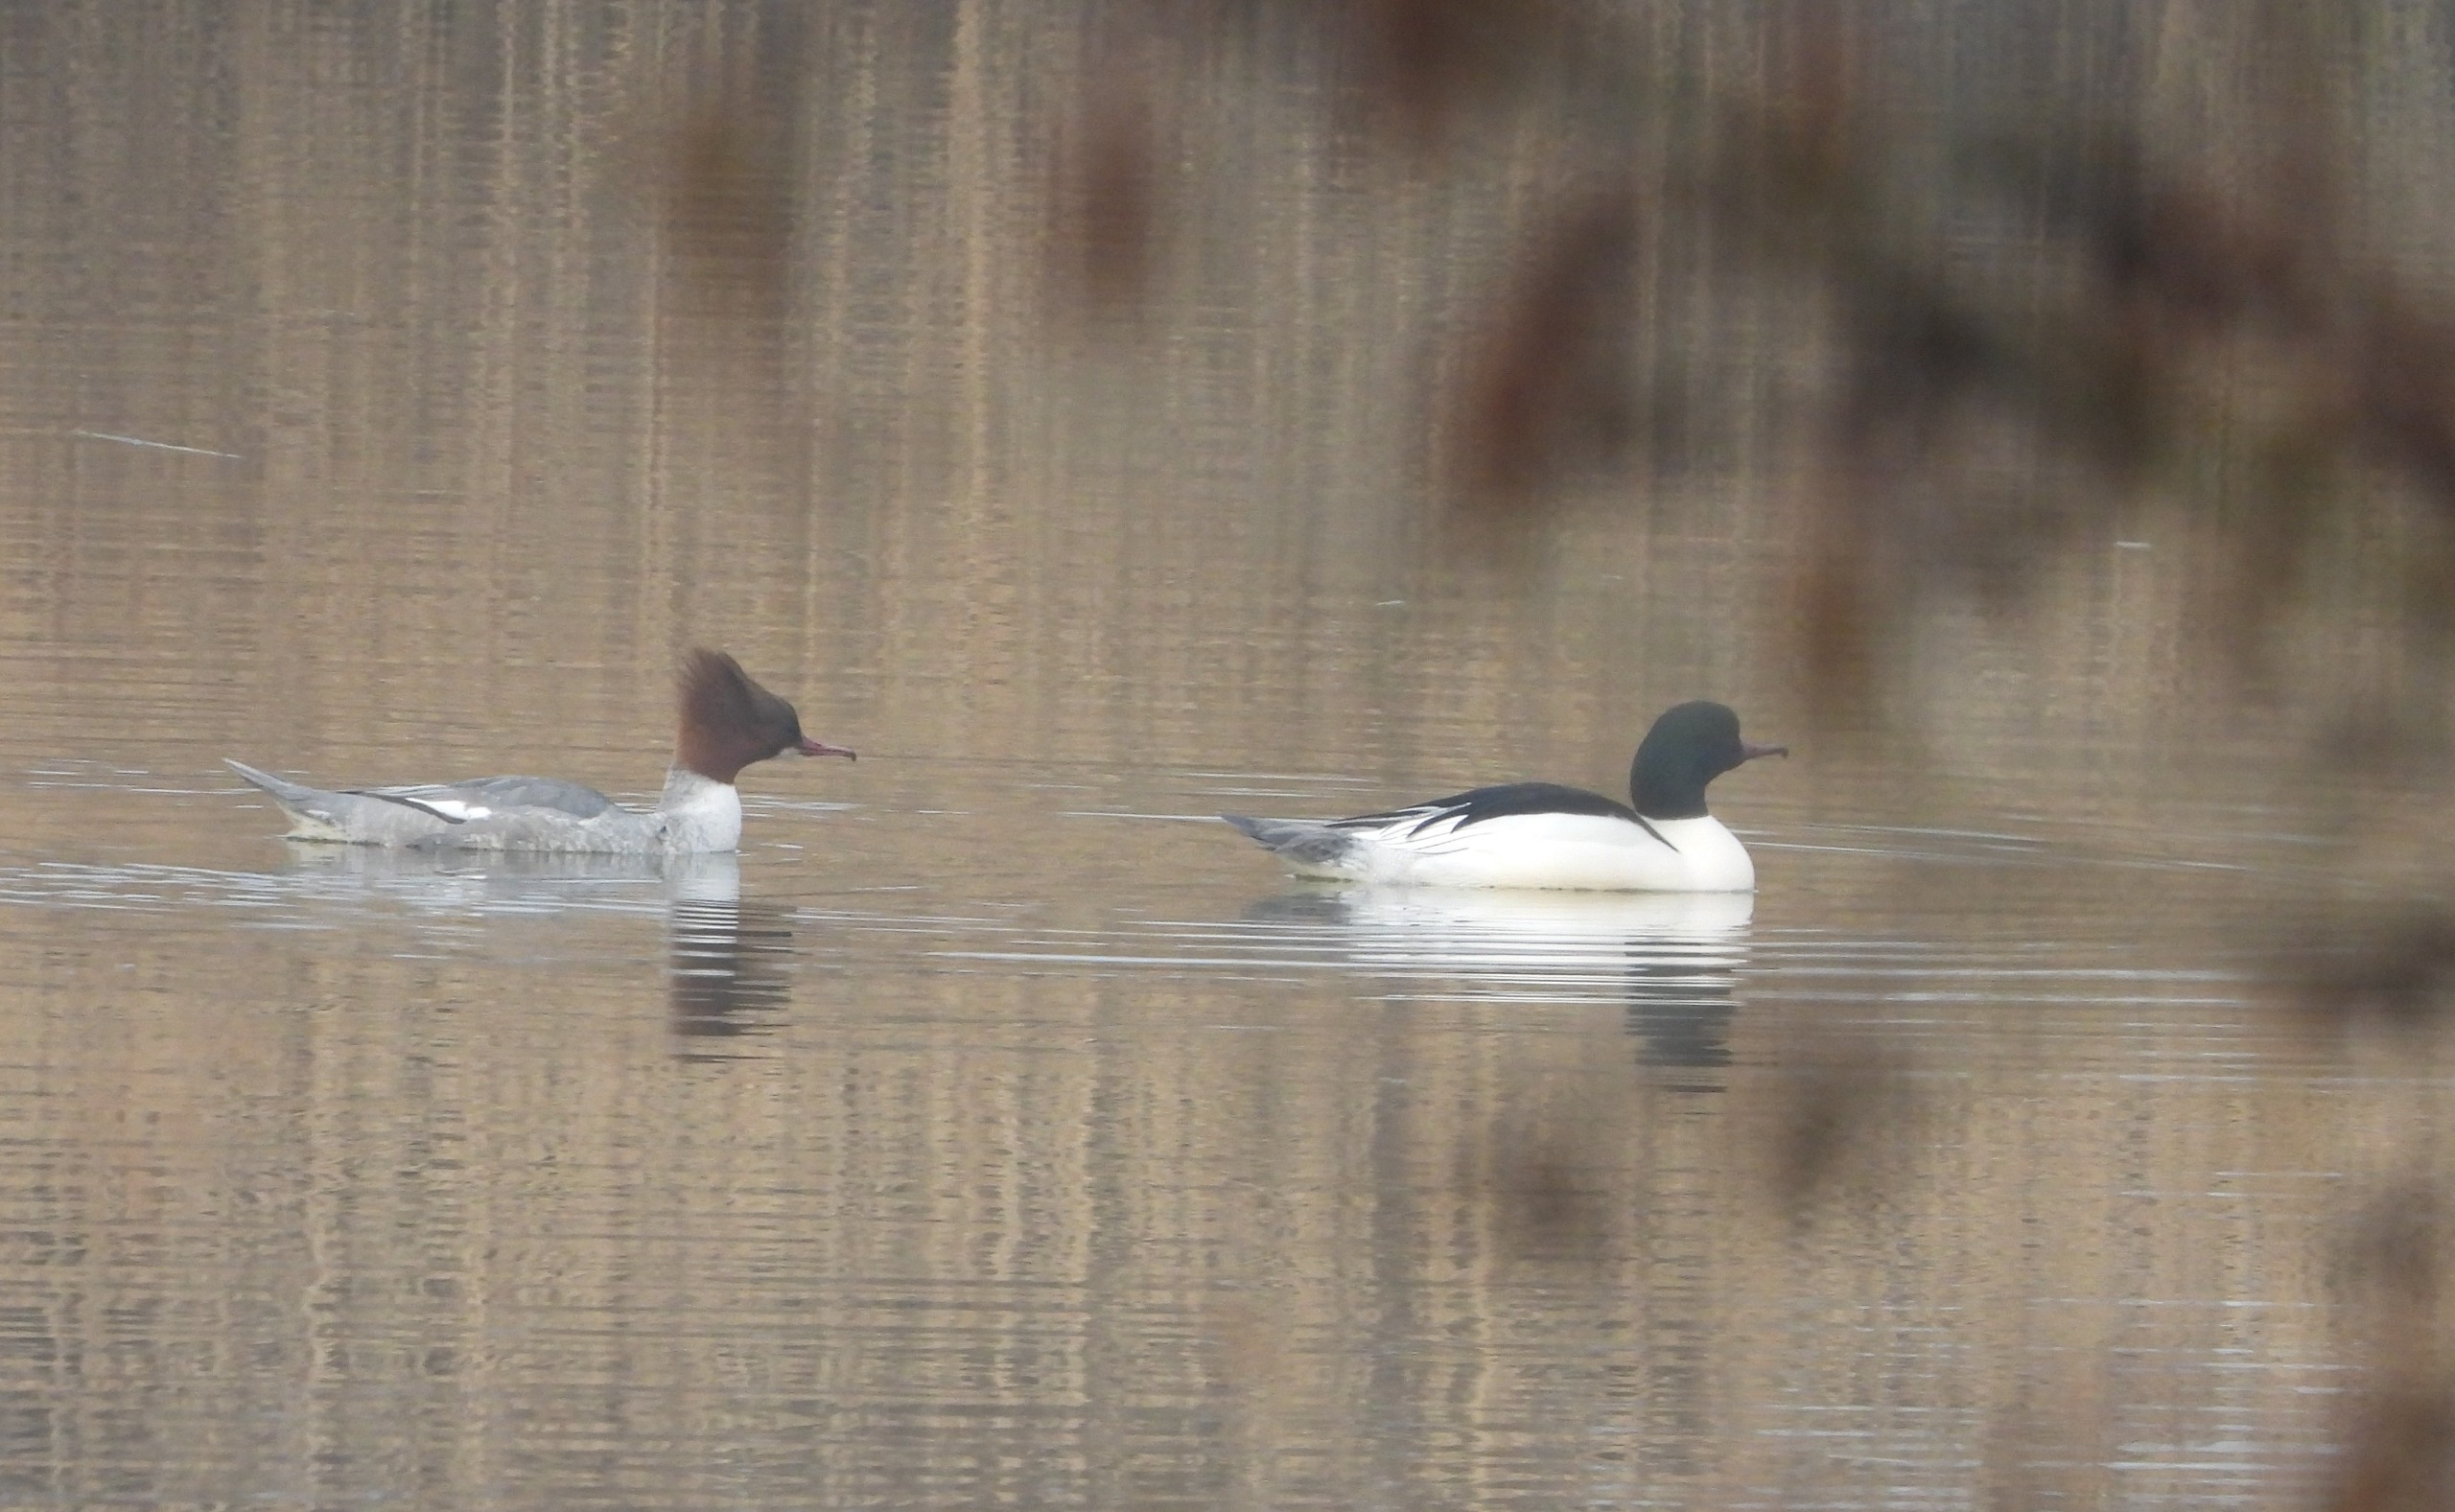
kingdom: Animalia
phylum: Chordata
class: Aves
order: Anseriformes
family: Anatidae
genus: Mergus
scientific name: Mergus merganser
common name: Stor skallesluger
